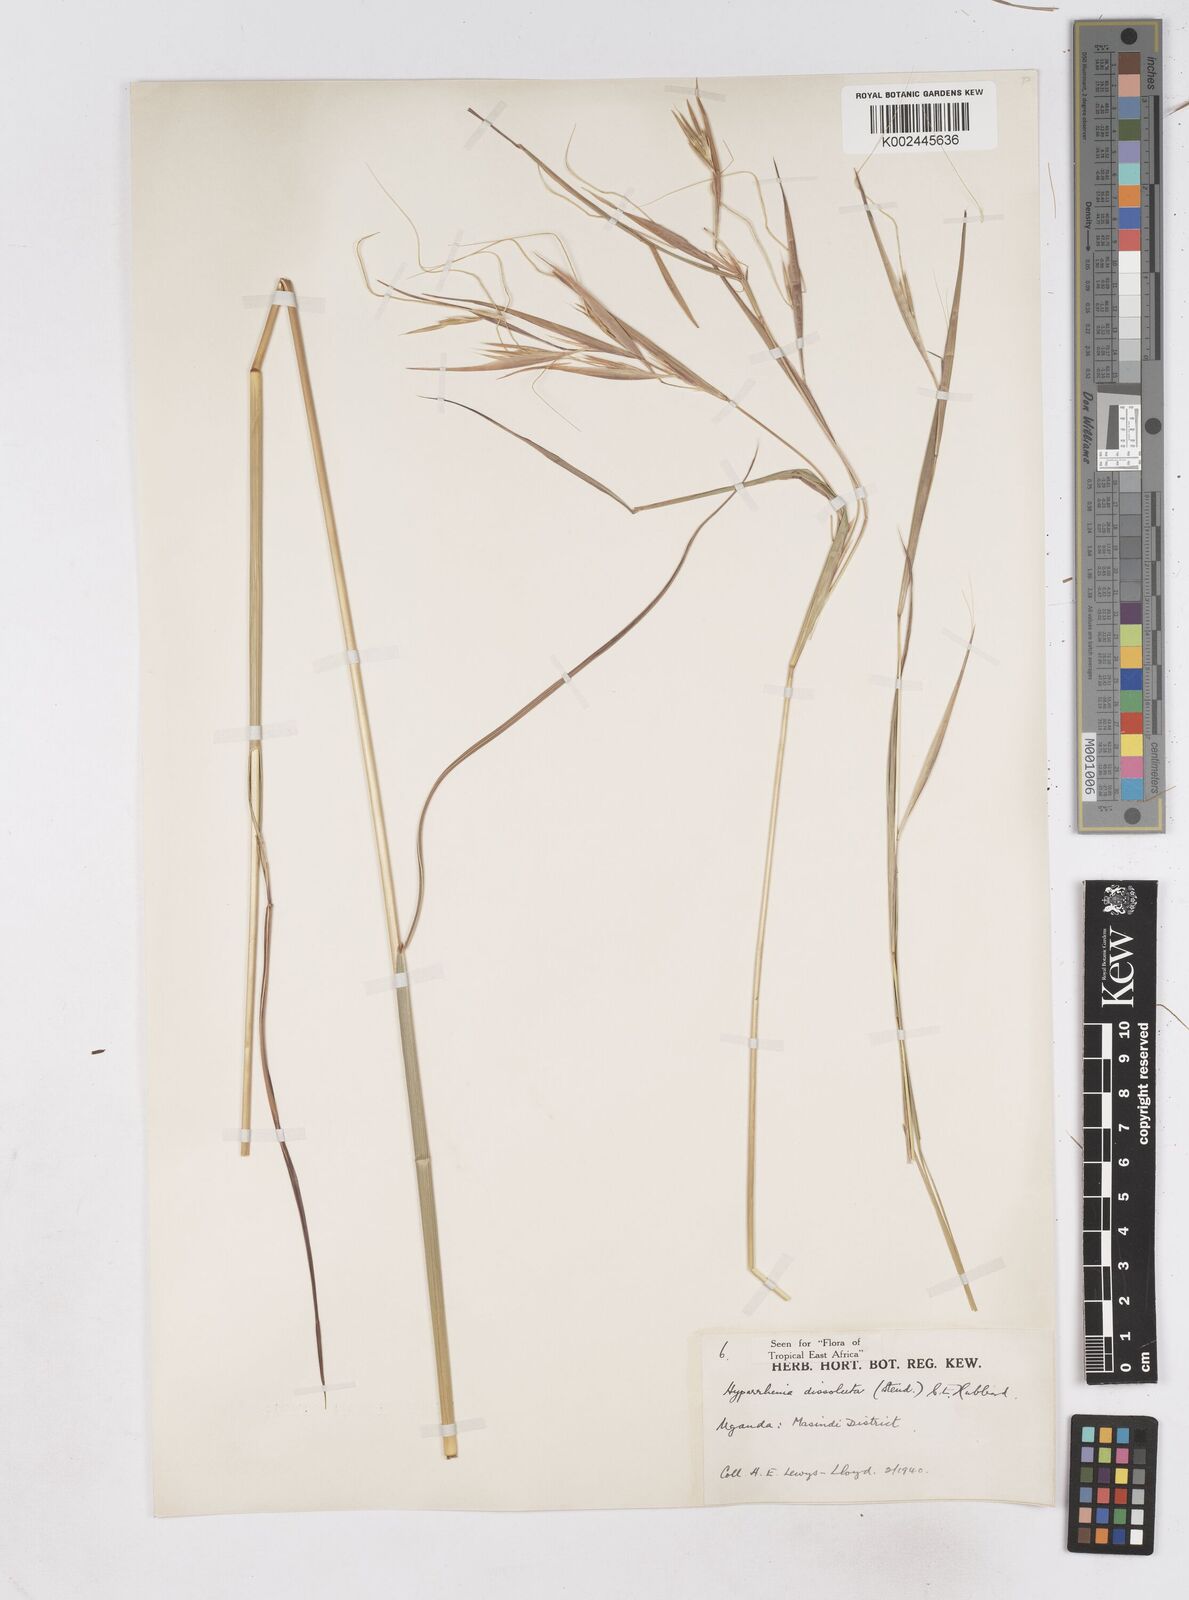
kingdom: Plantae
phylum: Tracheophyta
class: Liliopsida
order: Poales
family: Poaceae
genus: Hyperthelia
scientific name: Hyperthelia dissoluta
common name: Yellow thatching grass
